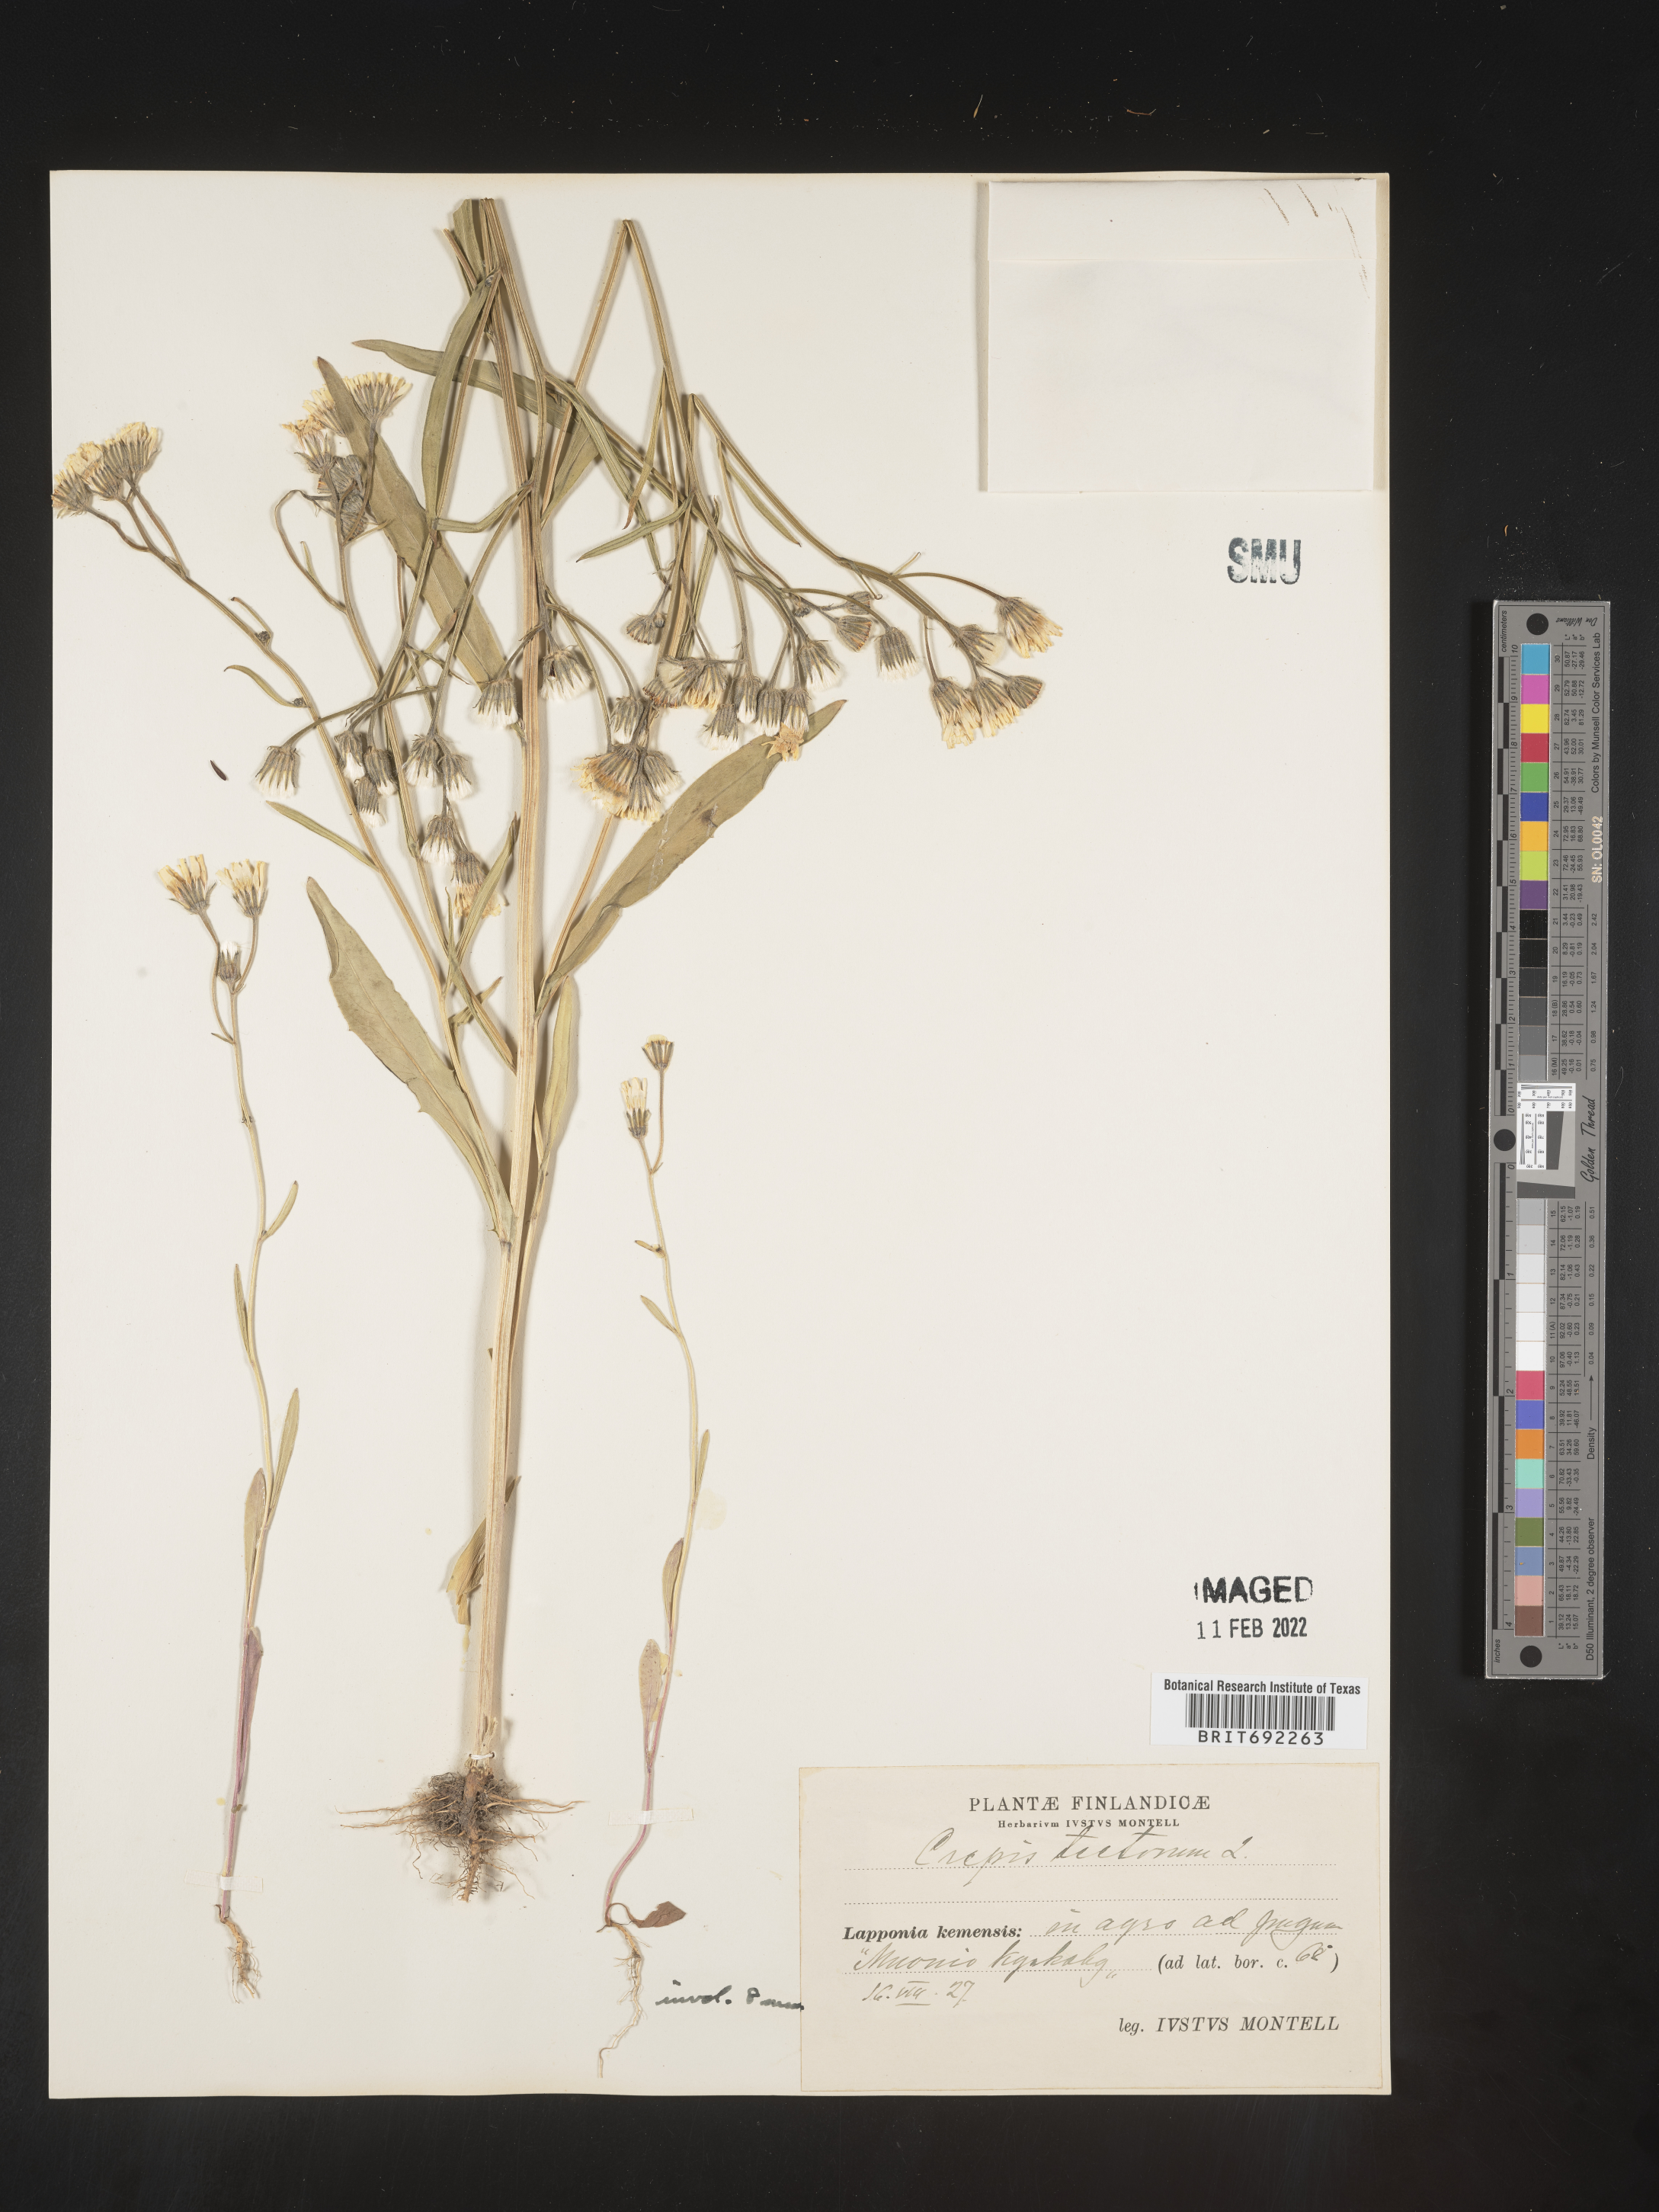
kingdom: Plantae
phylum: Tracheophyta
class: Magnoliopsida
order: Asterales
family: Asteraceae
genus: Crepis
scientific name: Crepis
